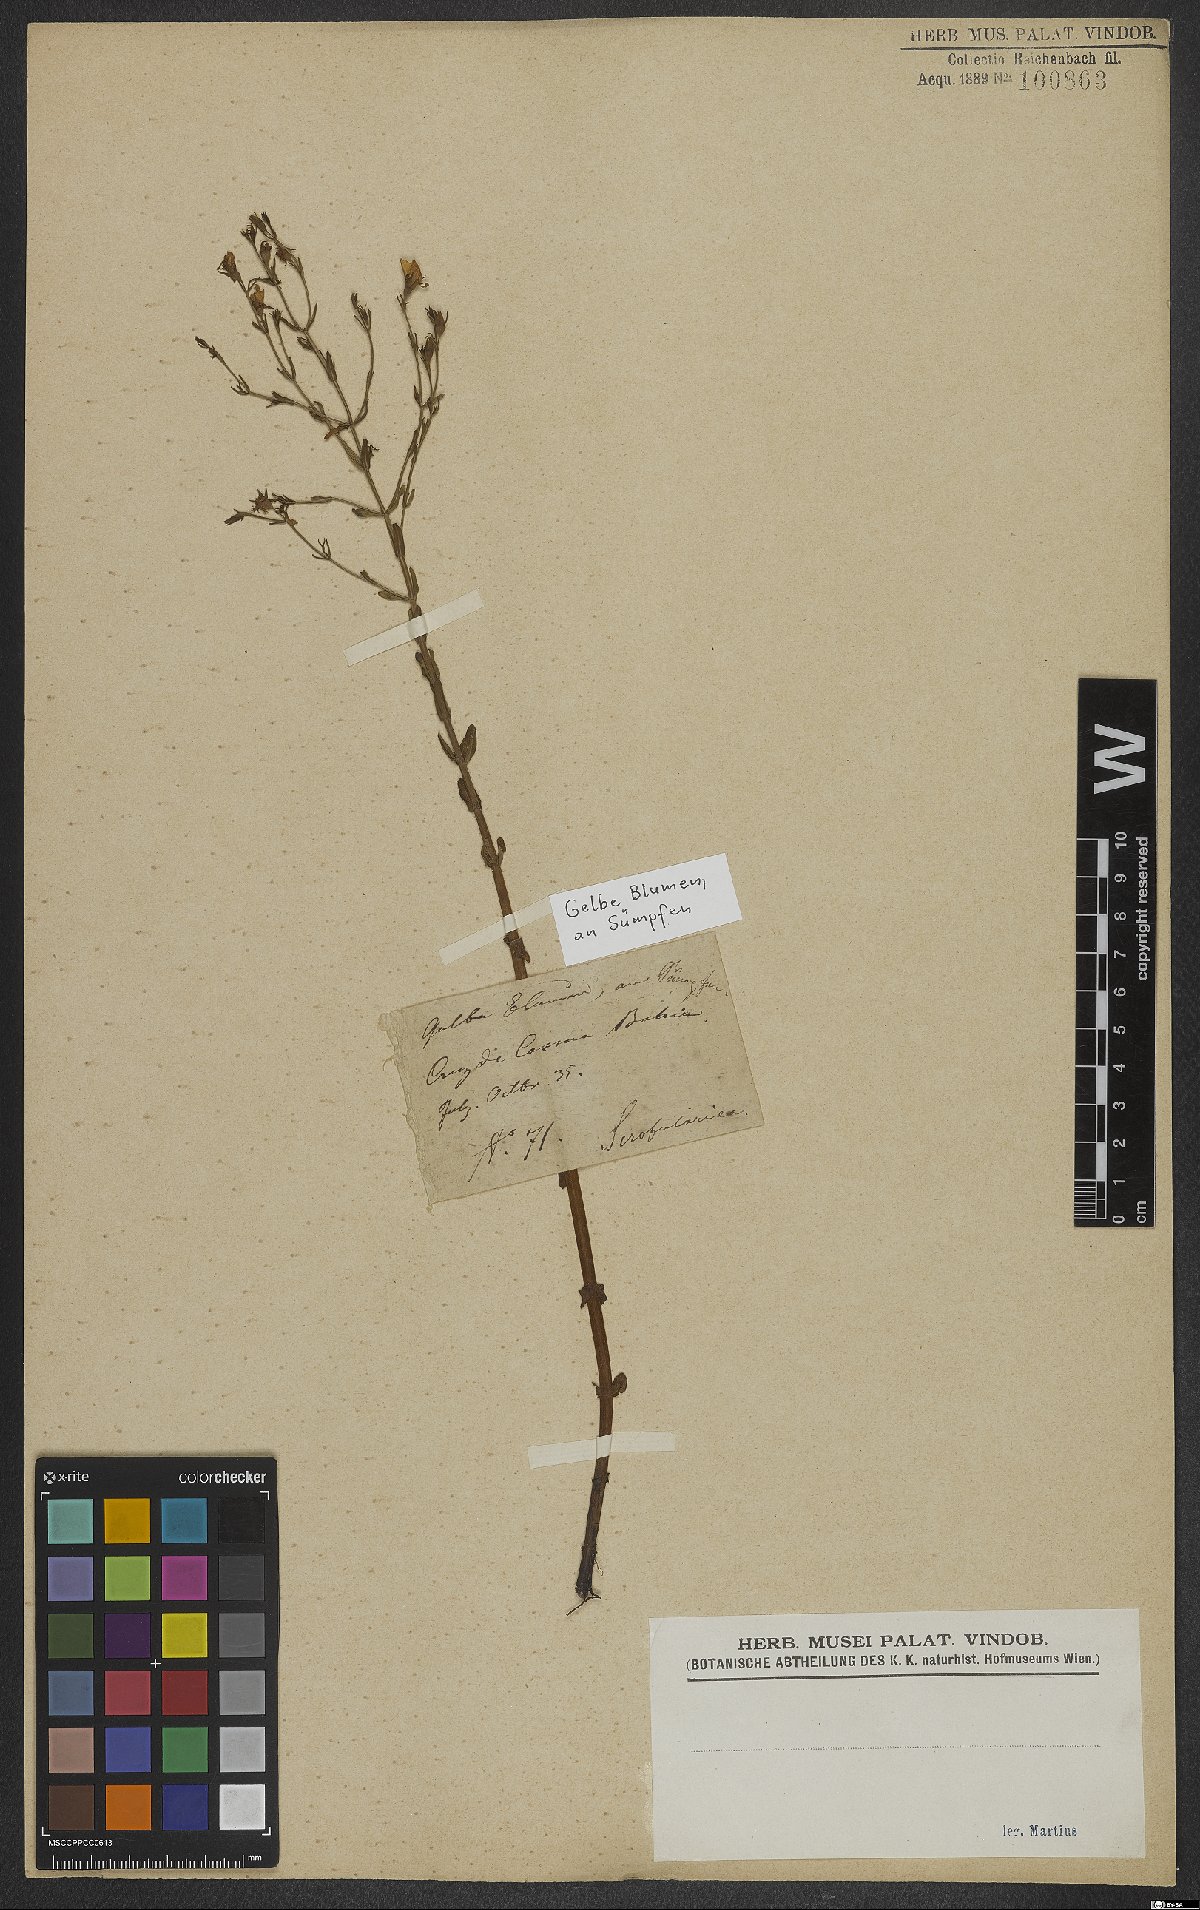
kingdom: Plantae
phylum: Tracheophyta
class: Magnoliopsida
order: Lamiales
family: Scrophulariaceae
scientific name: Scrophulariaceae
